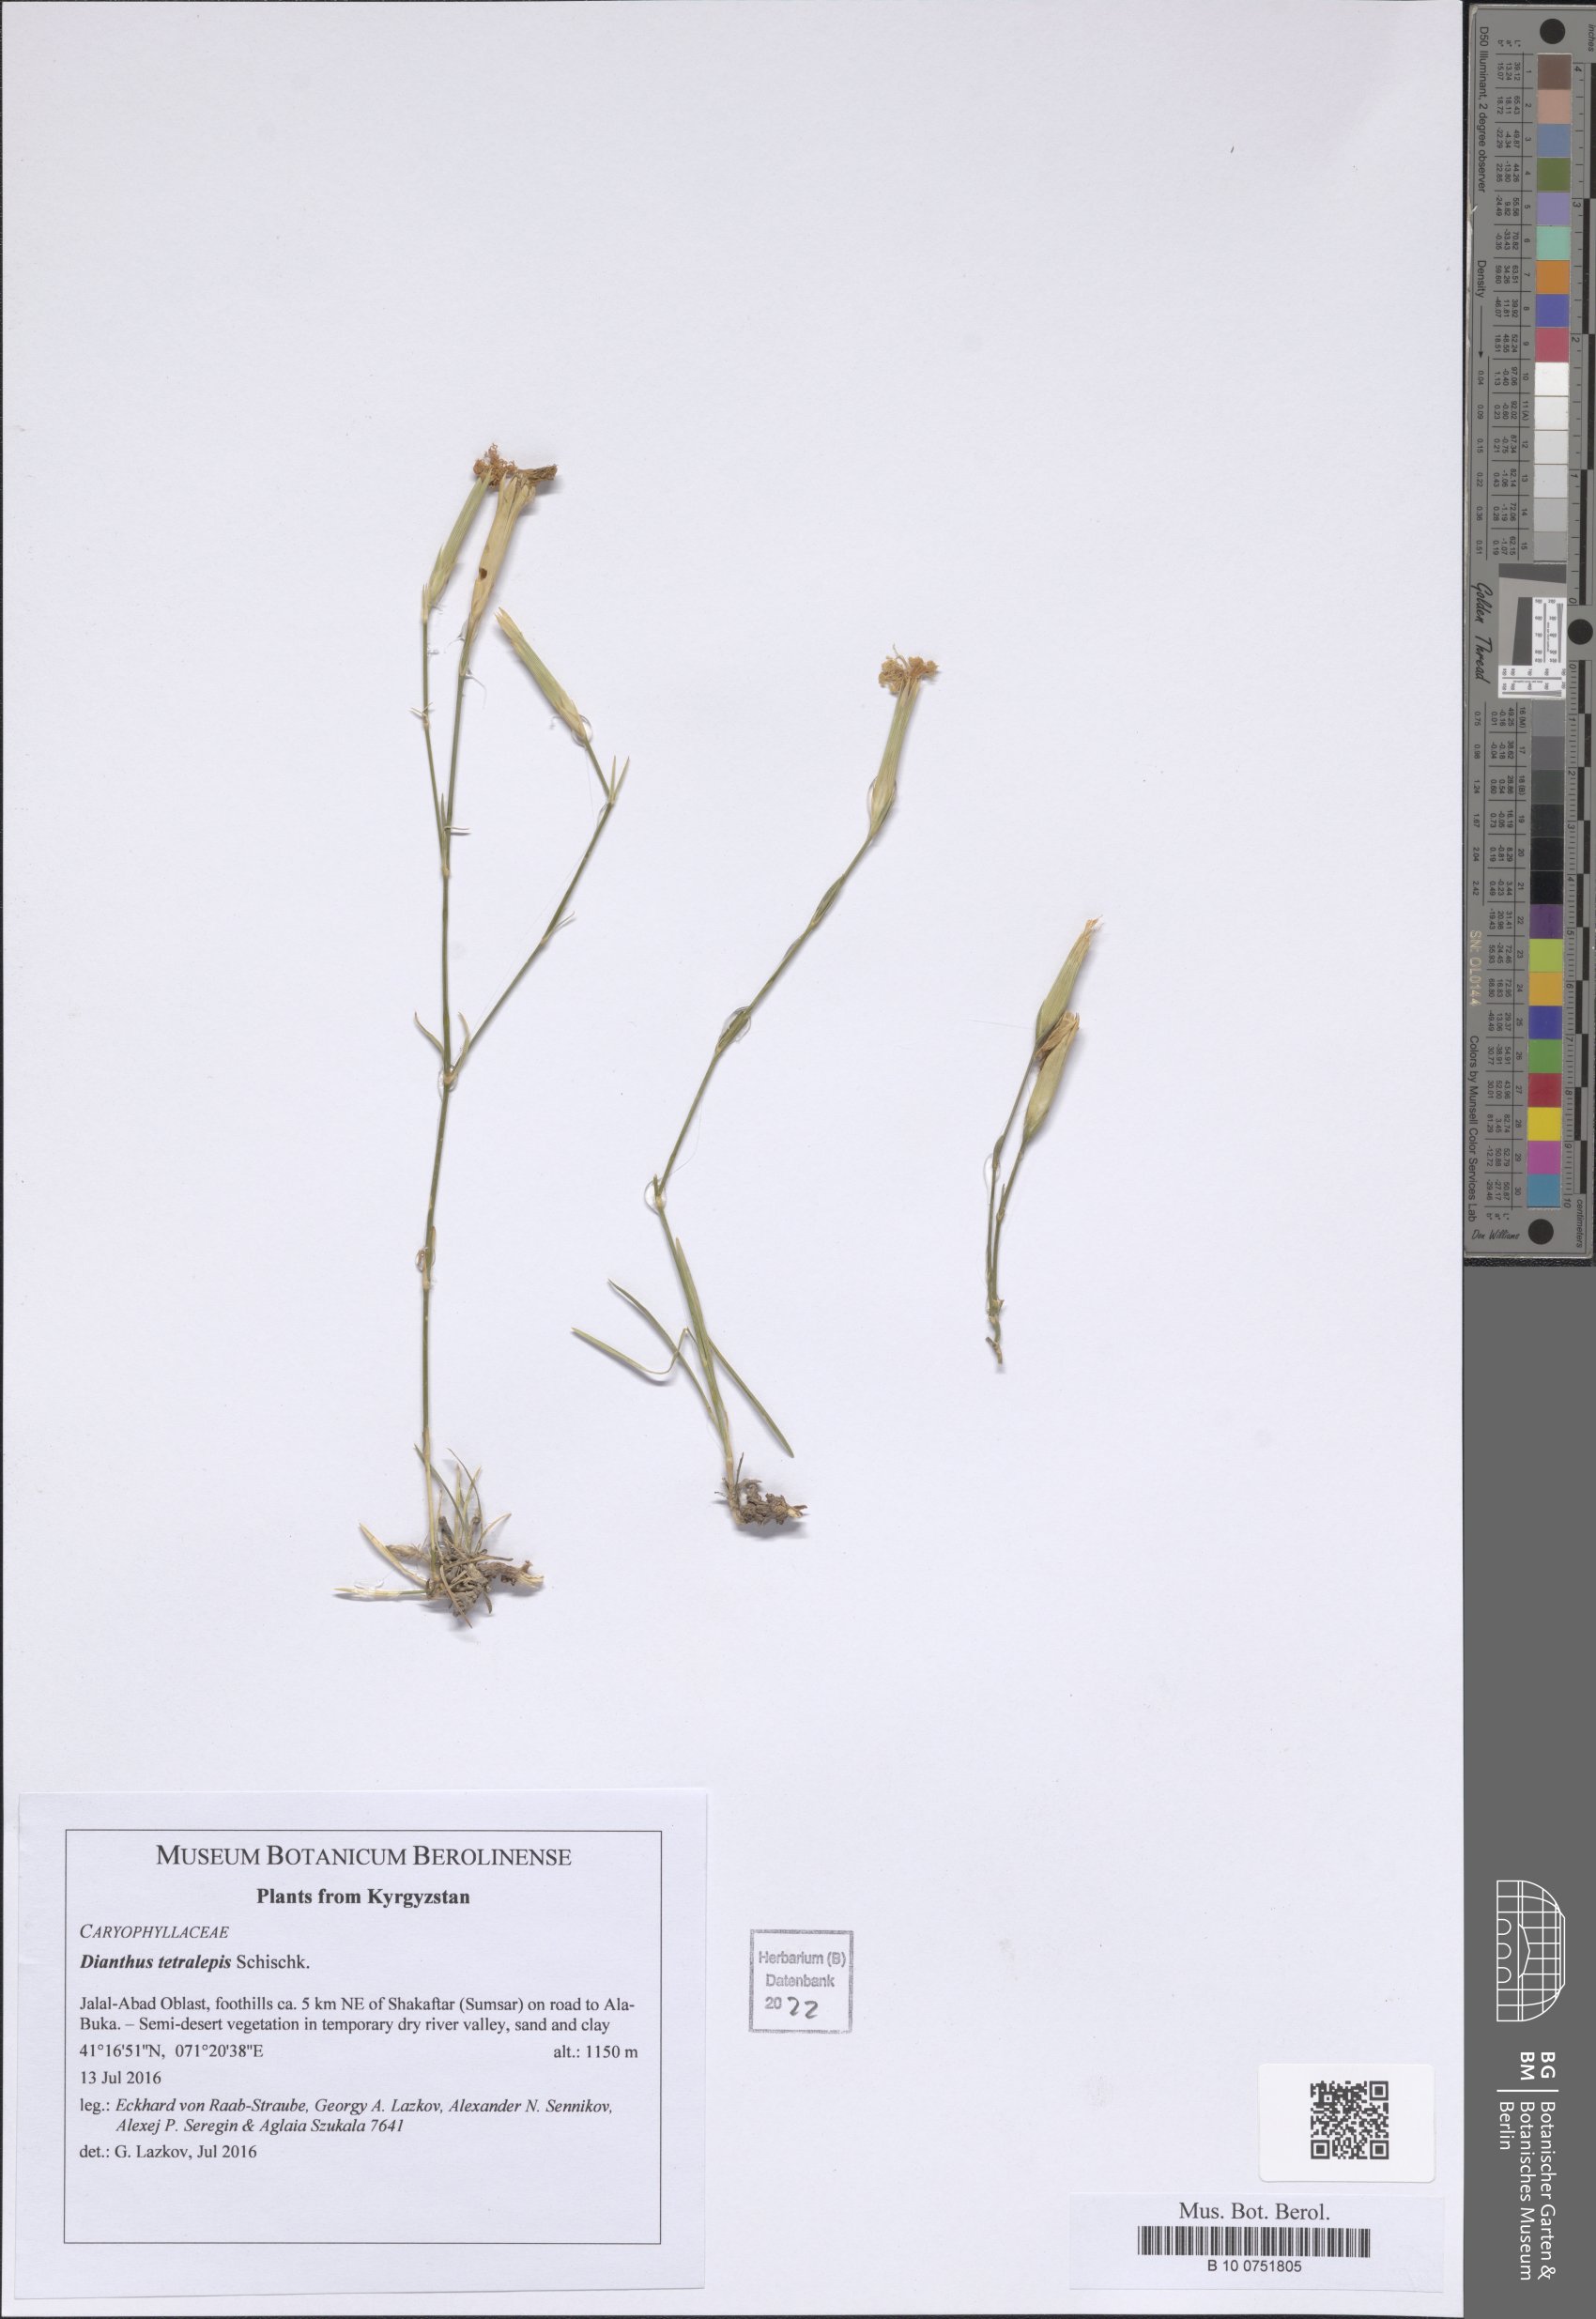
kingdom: Plantae
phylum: Tracheophyta
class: Magnoliopsida
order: Caryophyllales
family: Caryophyllaceae
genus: Dianthus
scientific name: Dianthus crinitus
